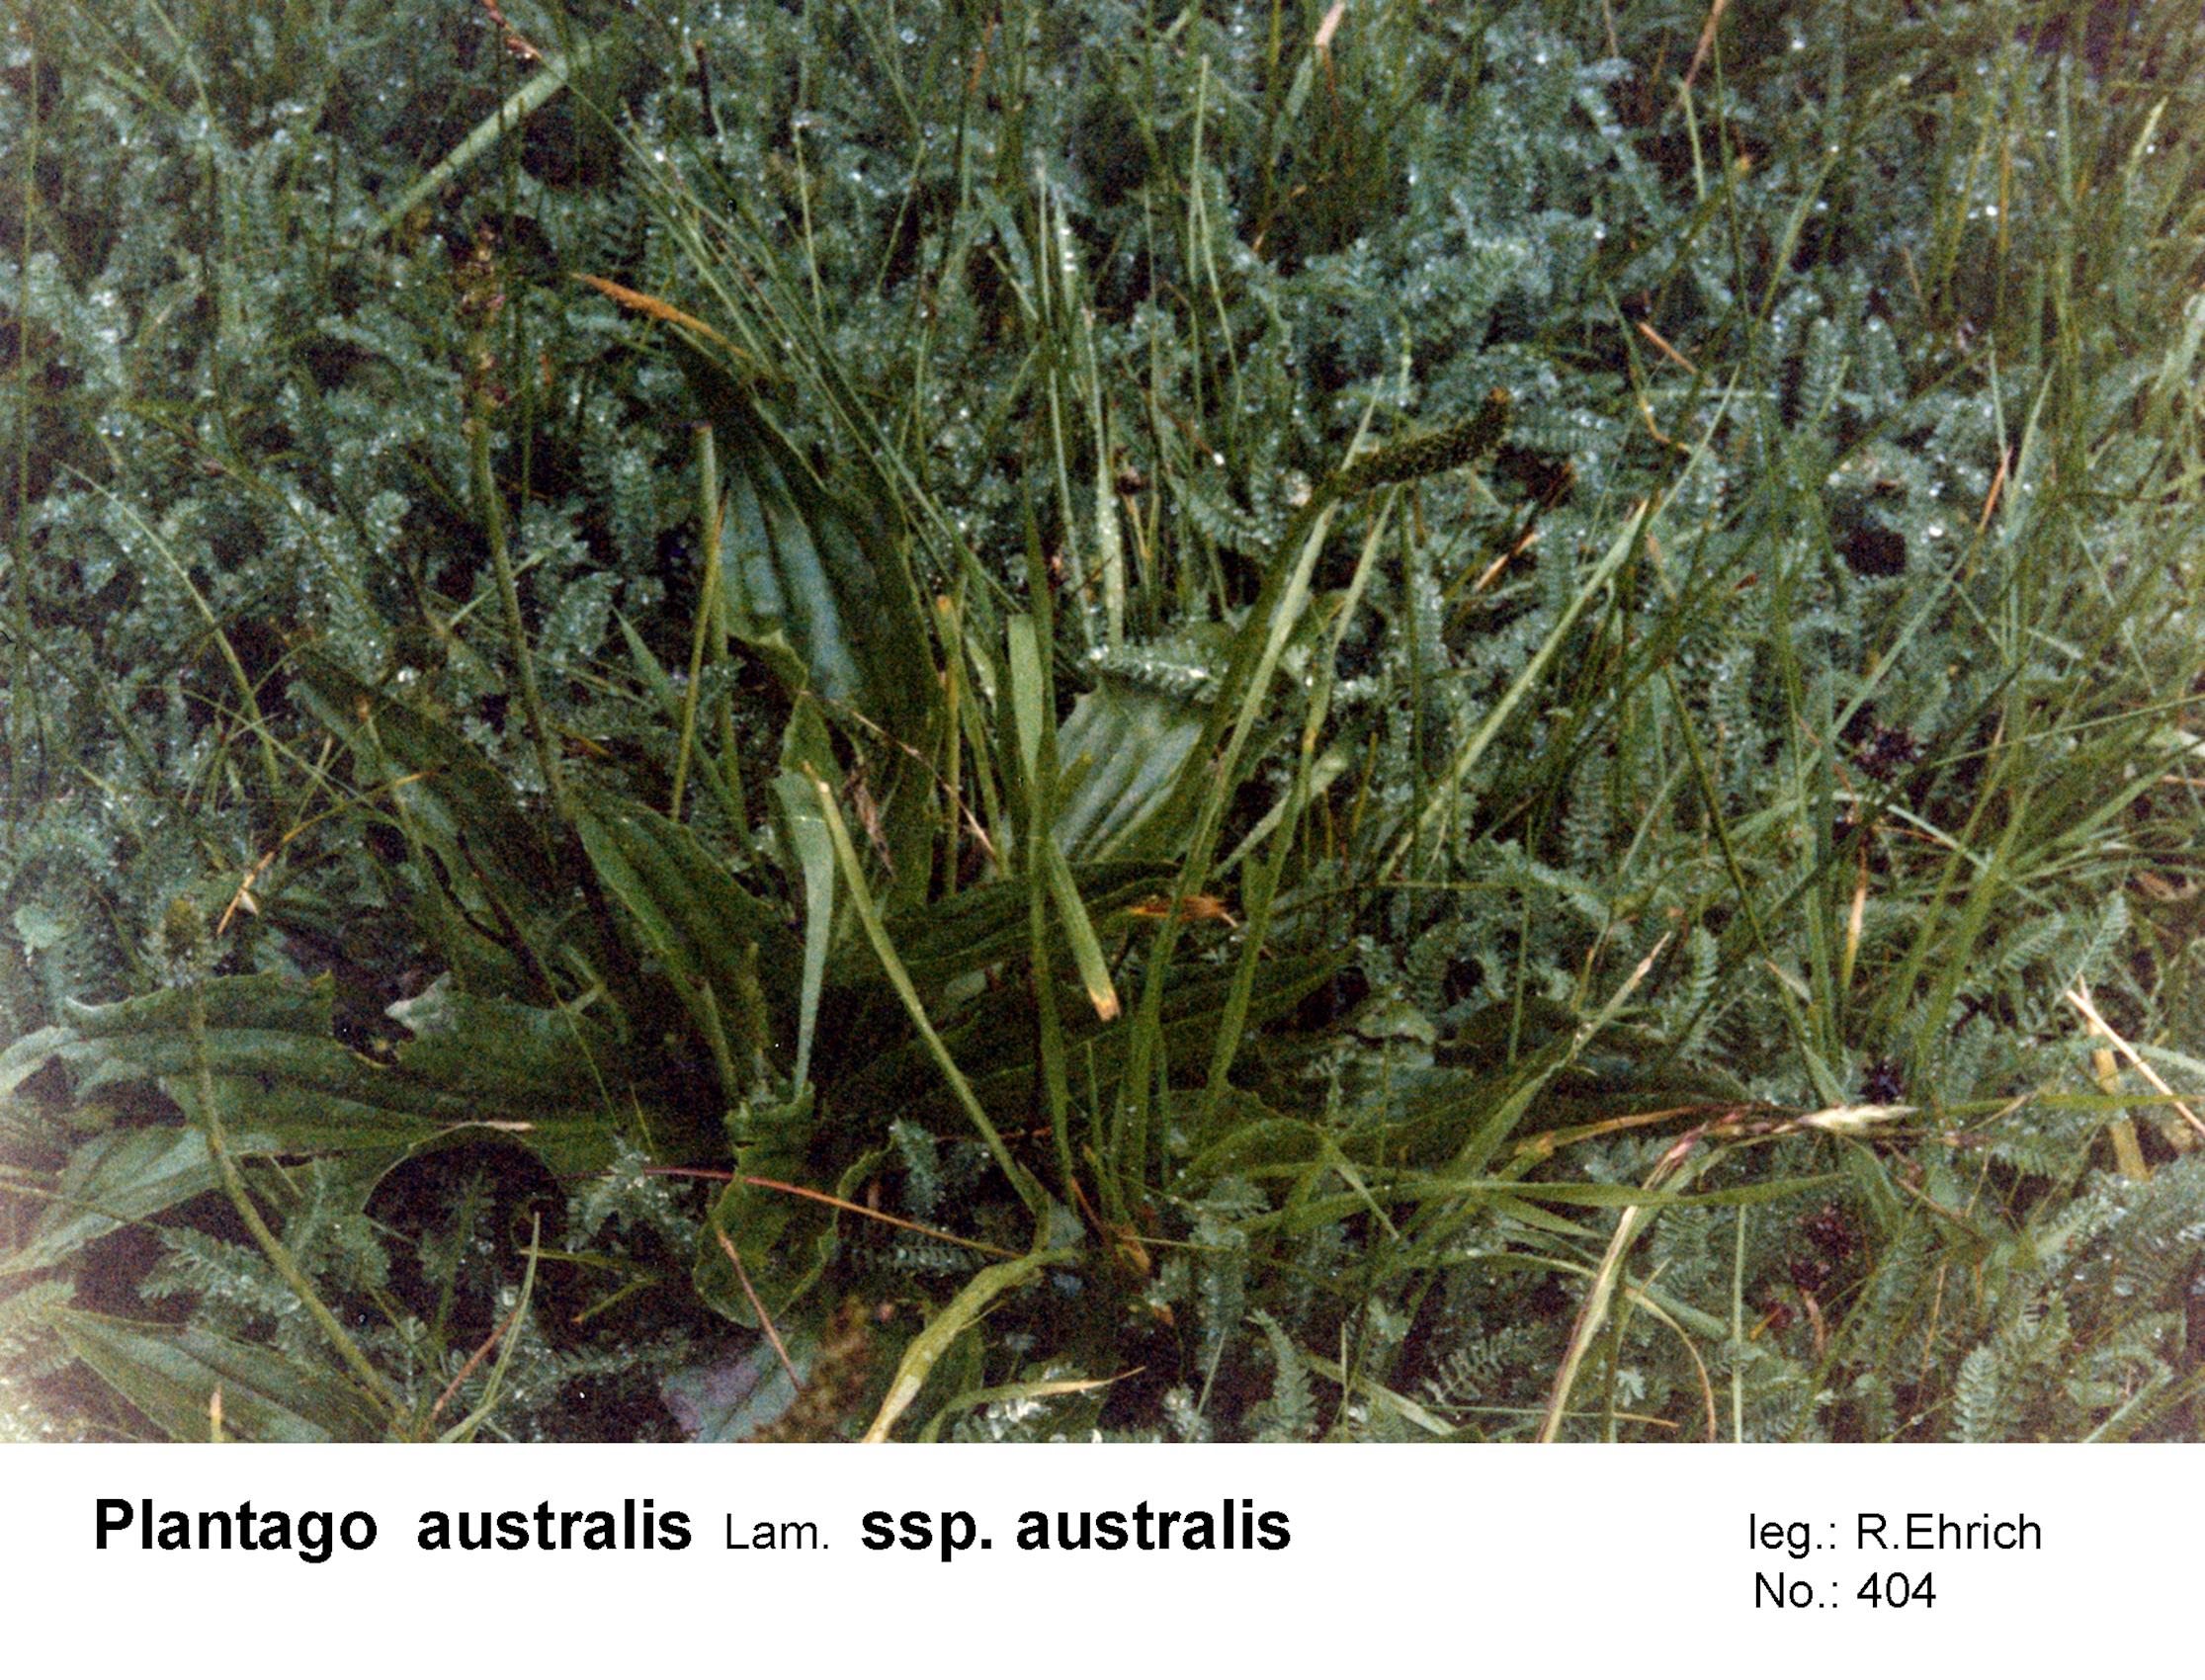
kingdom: Plantae
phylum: Tracheophyta
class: Magnoliopsida
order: Lamiales
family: Plantaginaceae
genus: Plantago
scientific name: Plantago australis
